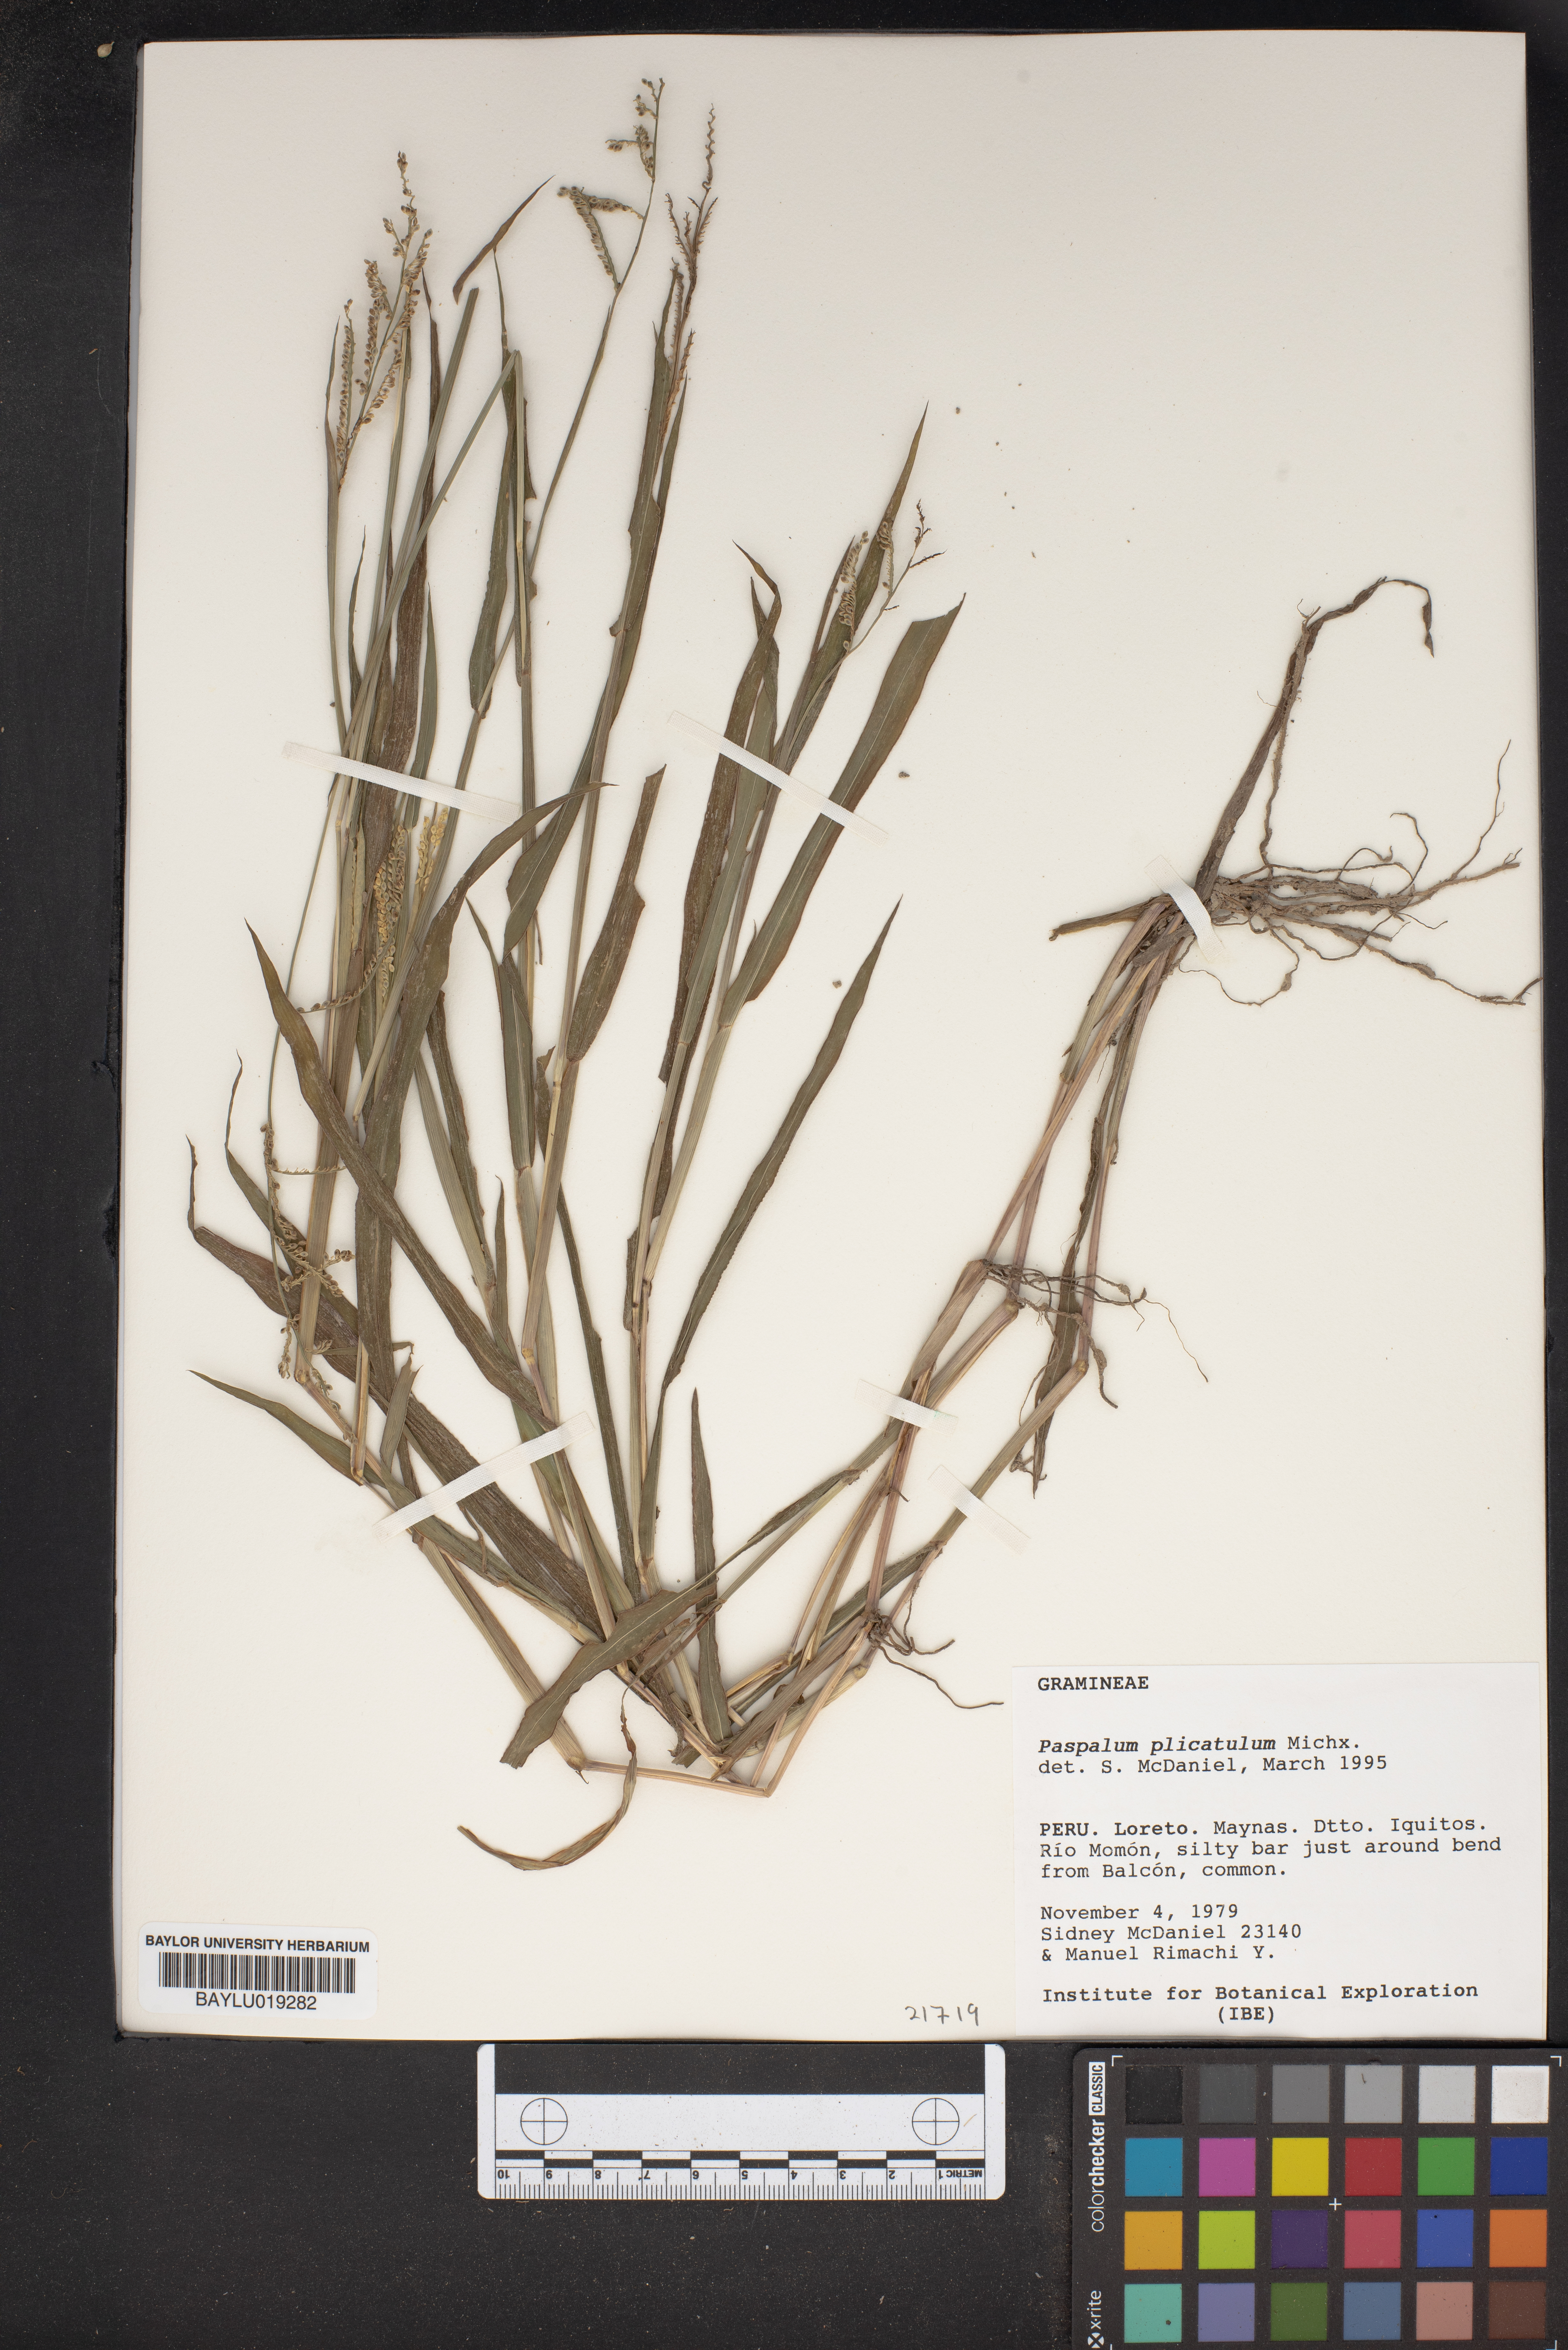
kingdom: Plantae
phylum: Tracheophyta
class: Liliopsida
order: Poales
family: Poaceae
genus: Paspalum
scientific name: Paspalum plicatulum
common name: Top paspalum
